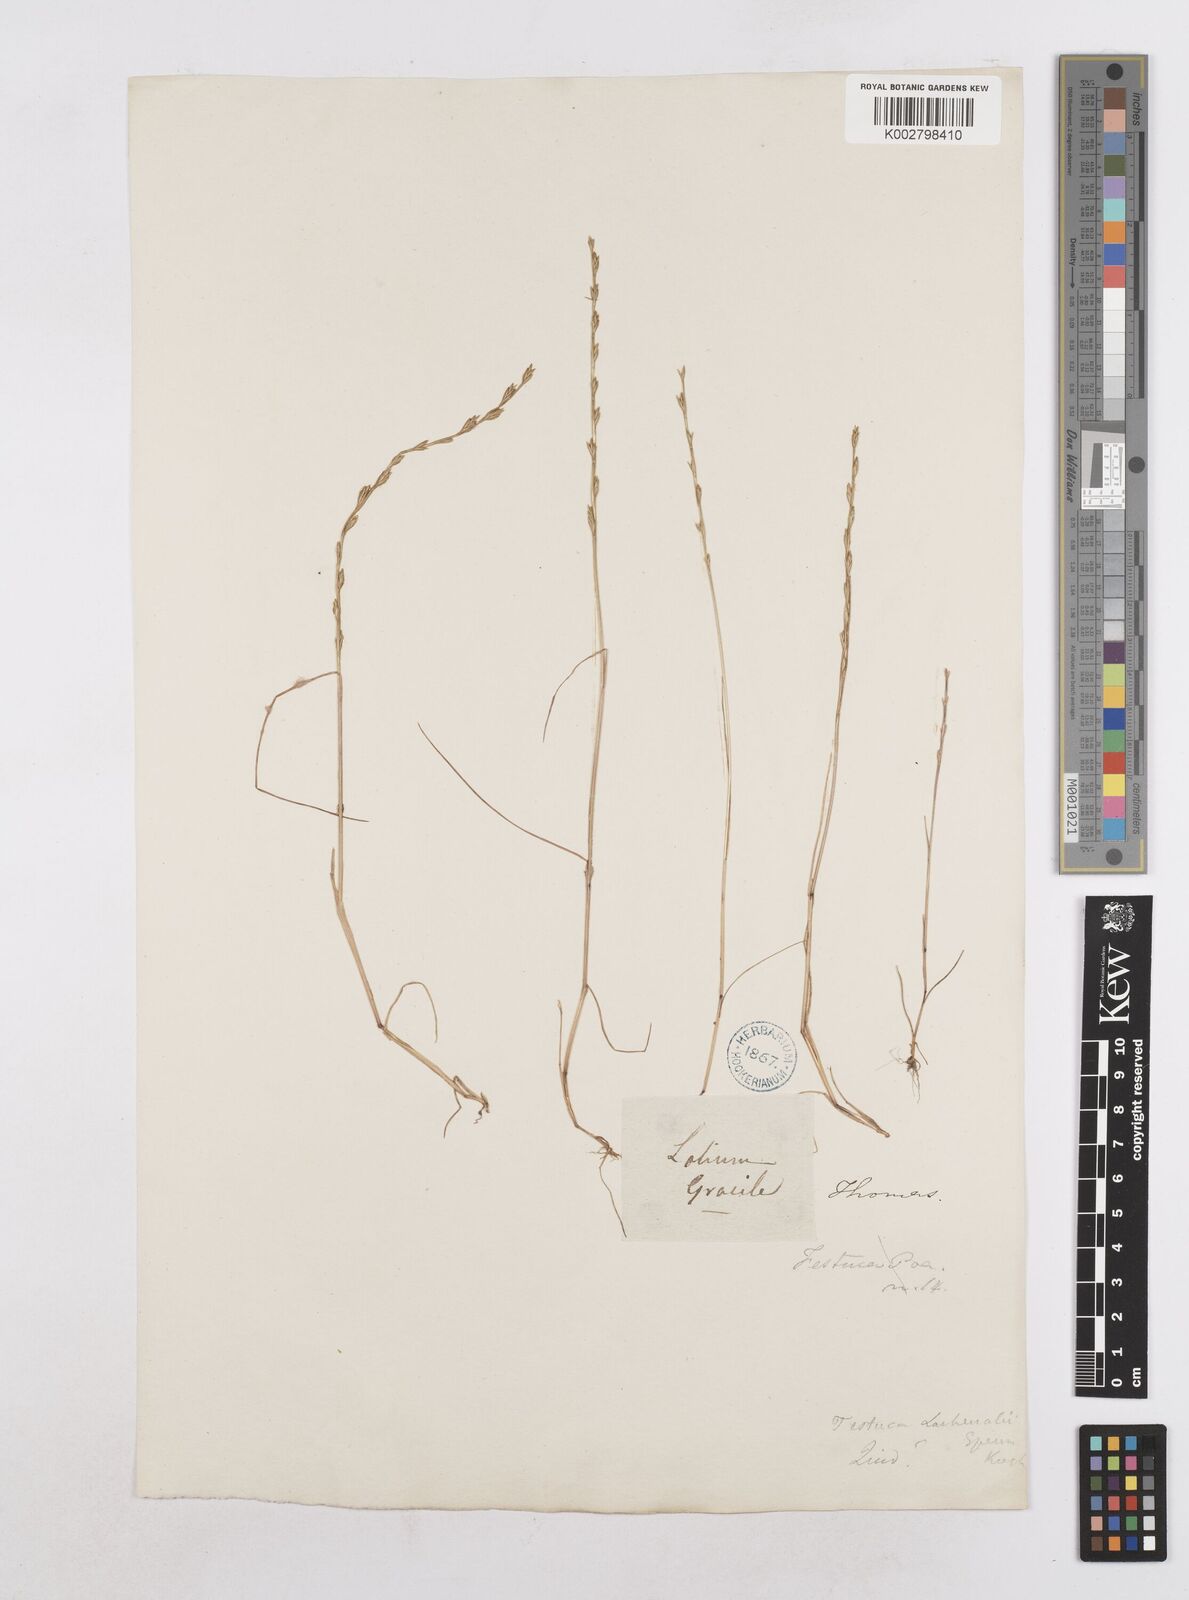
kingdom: Plantae
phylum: Tracheophyta
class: Liliopsida
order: Poales
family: Poaceae
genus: Festuca
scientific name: Festuca lachenalii
